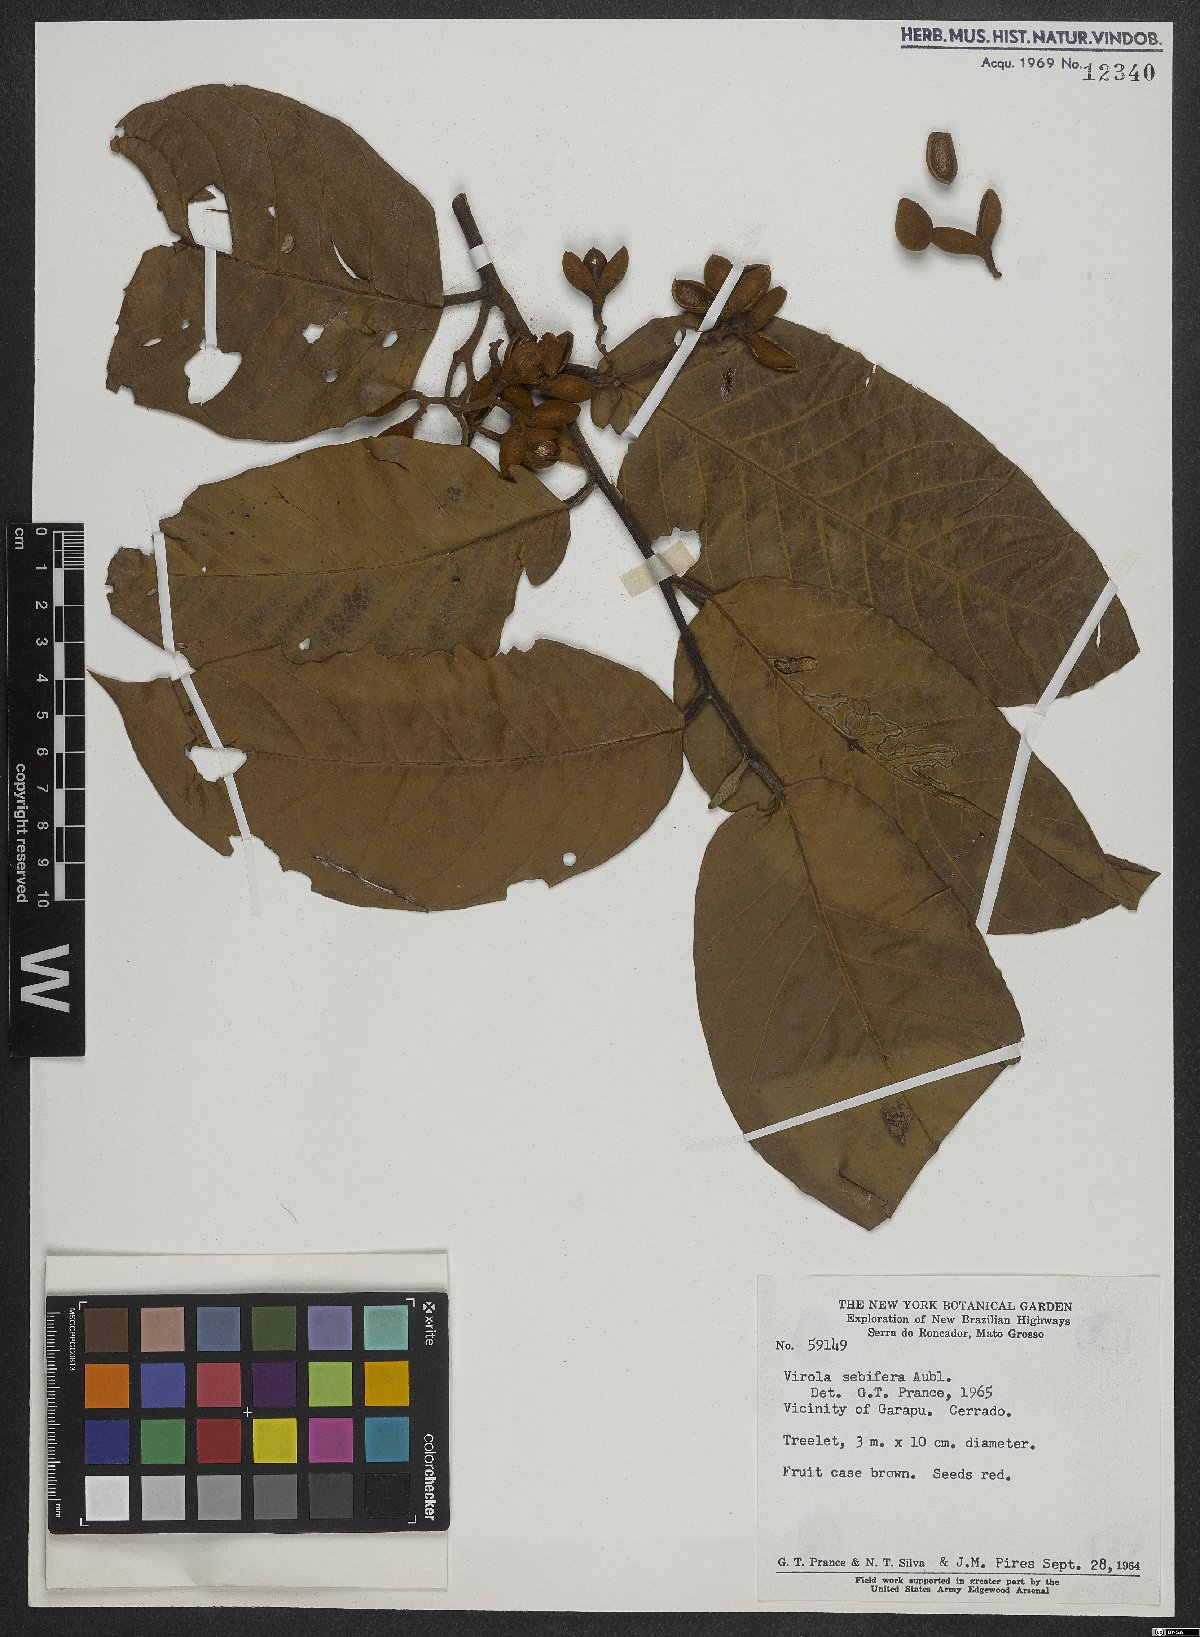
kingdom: Plantae
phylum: Tracheophyta
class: Magnoliopsida
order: Magnoliales
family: Myristicaceae
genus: Virola
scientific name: Virola sebifera
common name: Red ucuuba
